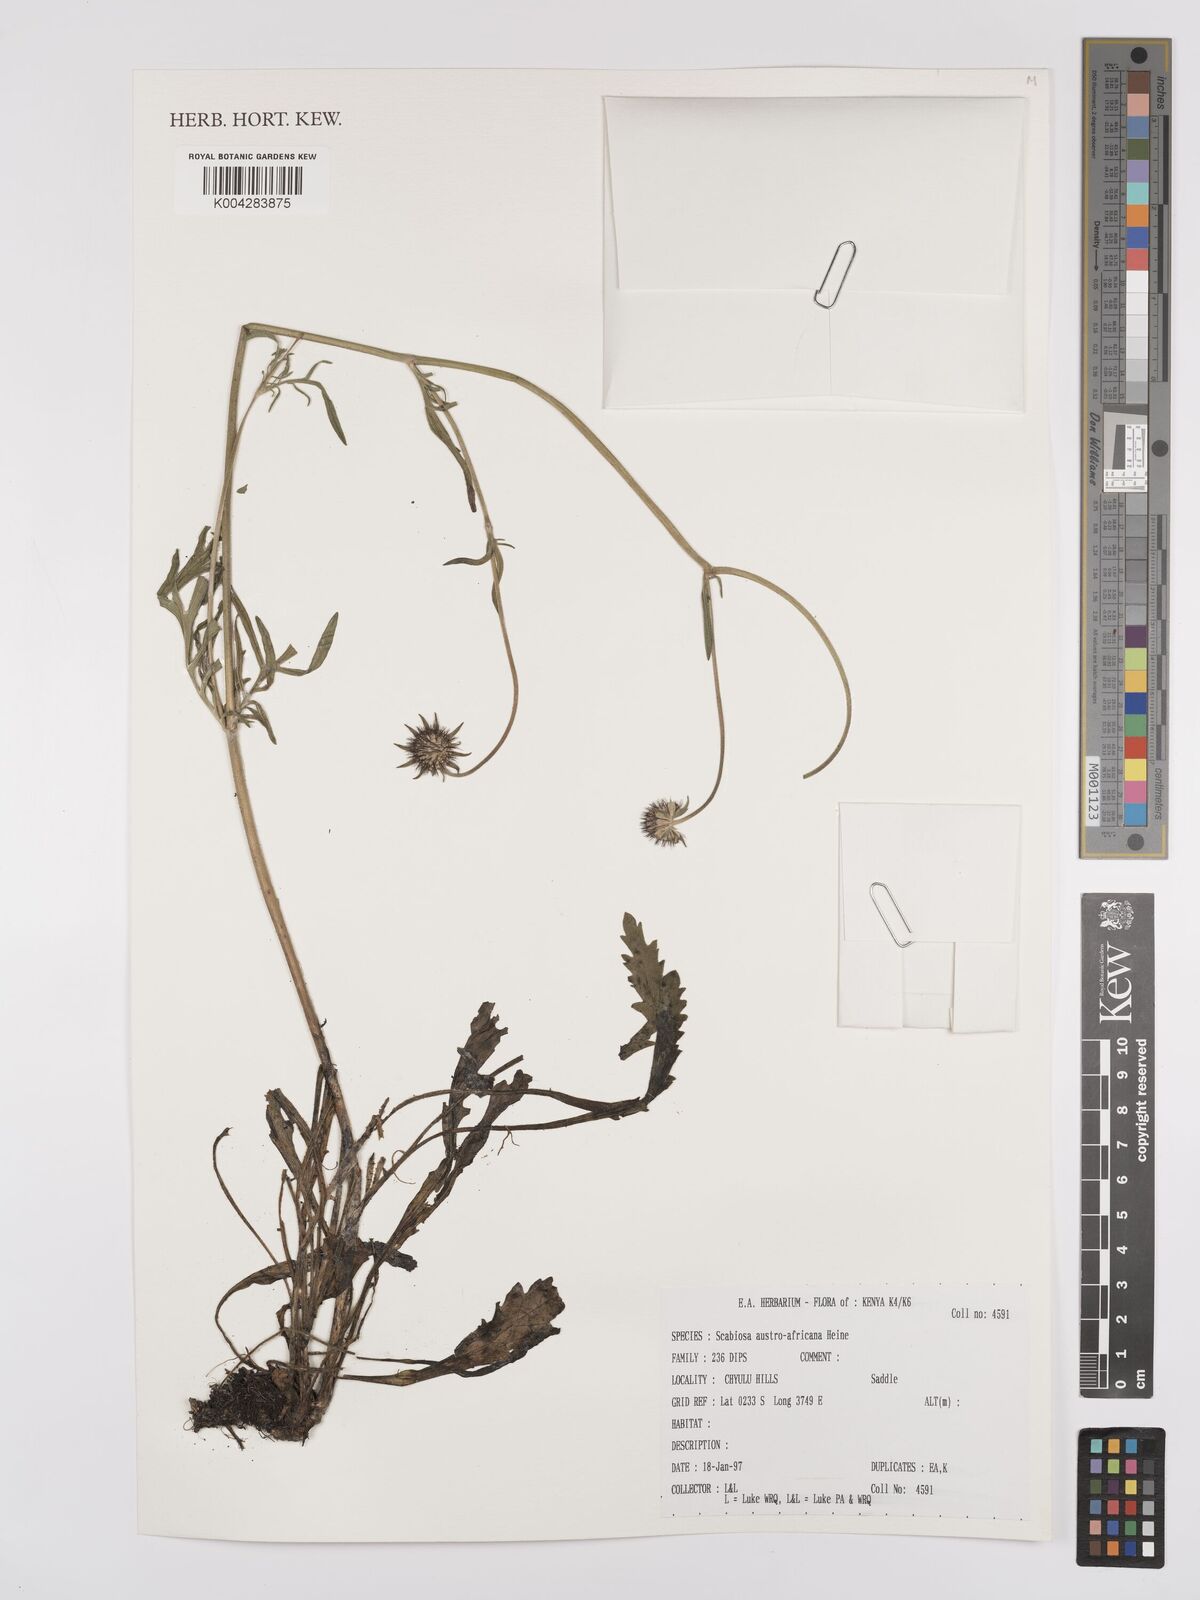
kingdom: Plantae
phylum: Tracheophyta
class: Magnoliopsida
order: Dipsacales
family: Caprifoliaceae
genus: Scabiosa
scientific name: Scabiosa austroafricana
